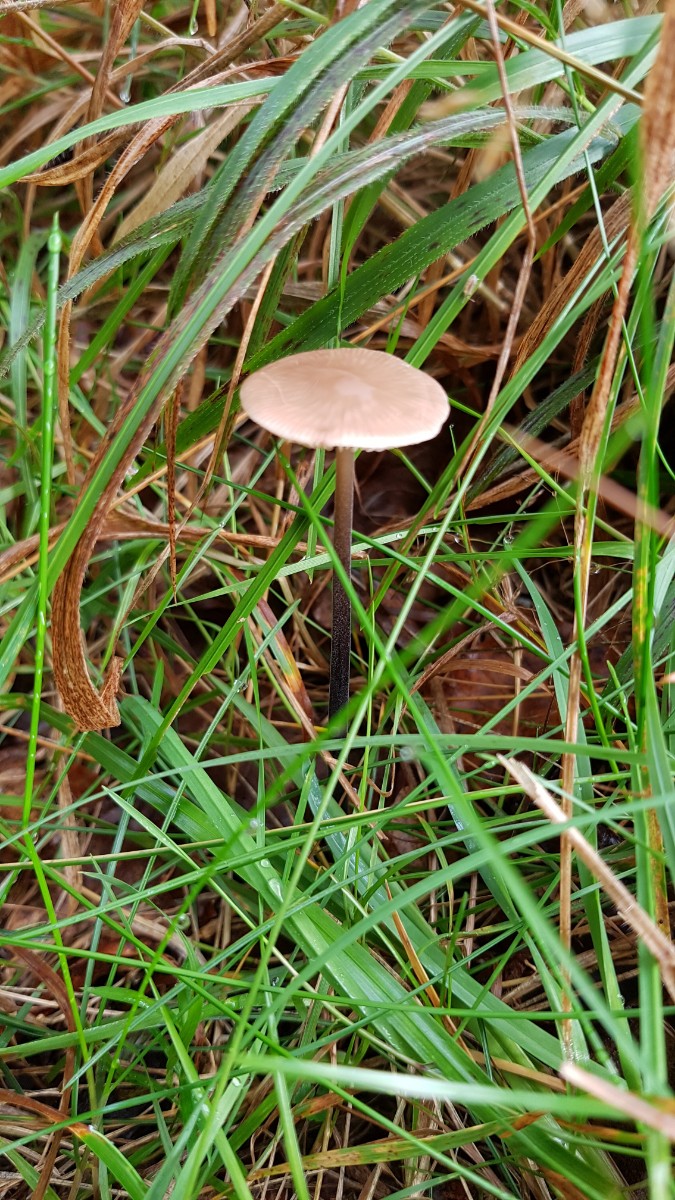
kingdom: Fungi
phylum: Basidiomycota
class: Agaricomycetes
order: Agaricales
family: Omphalotaceae
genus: Mycetinis
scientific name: Mycetinis alliaceus
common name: stor løghat
